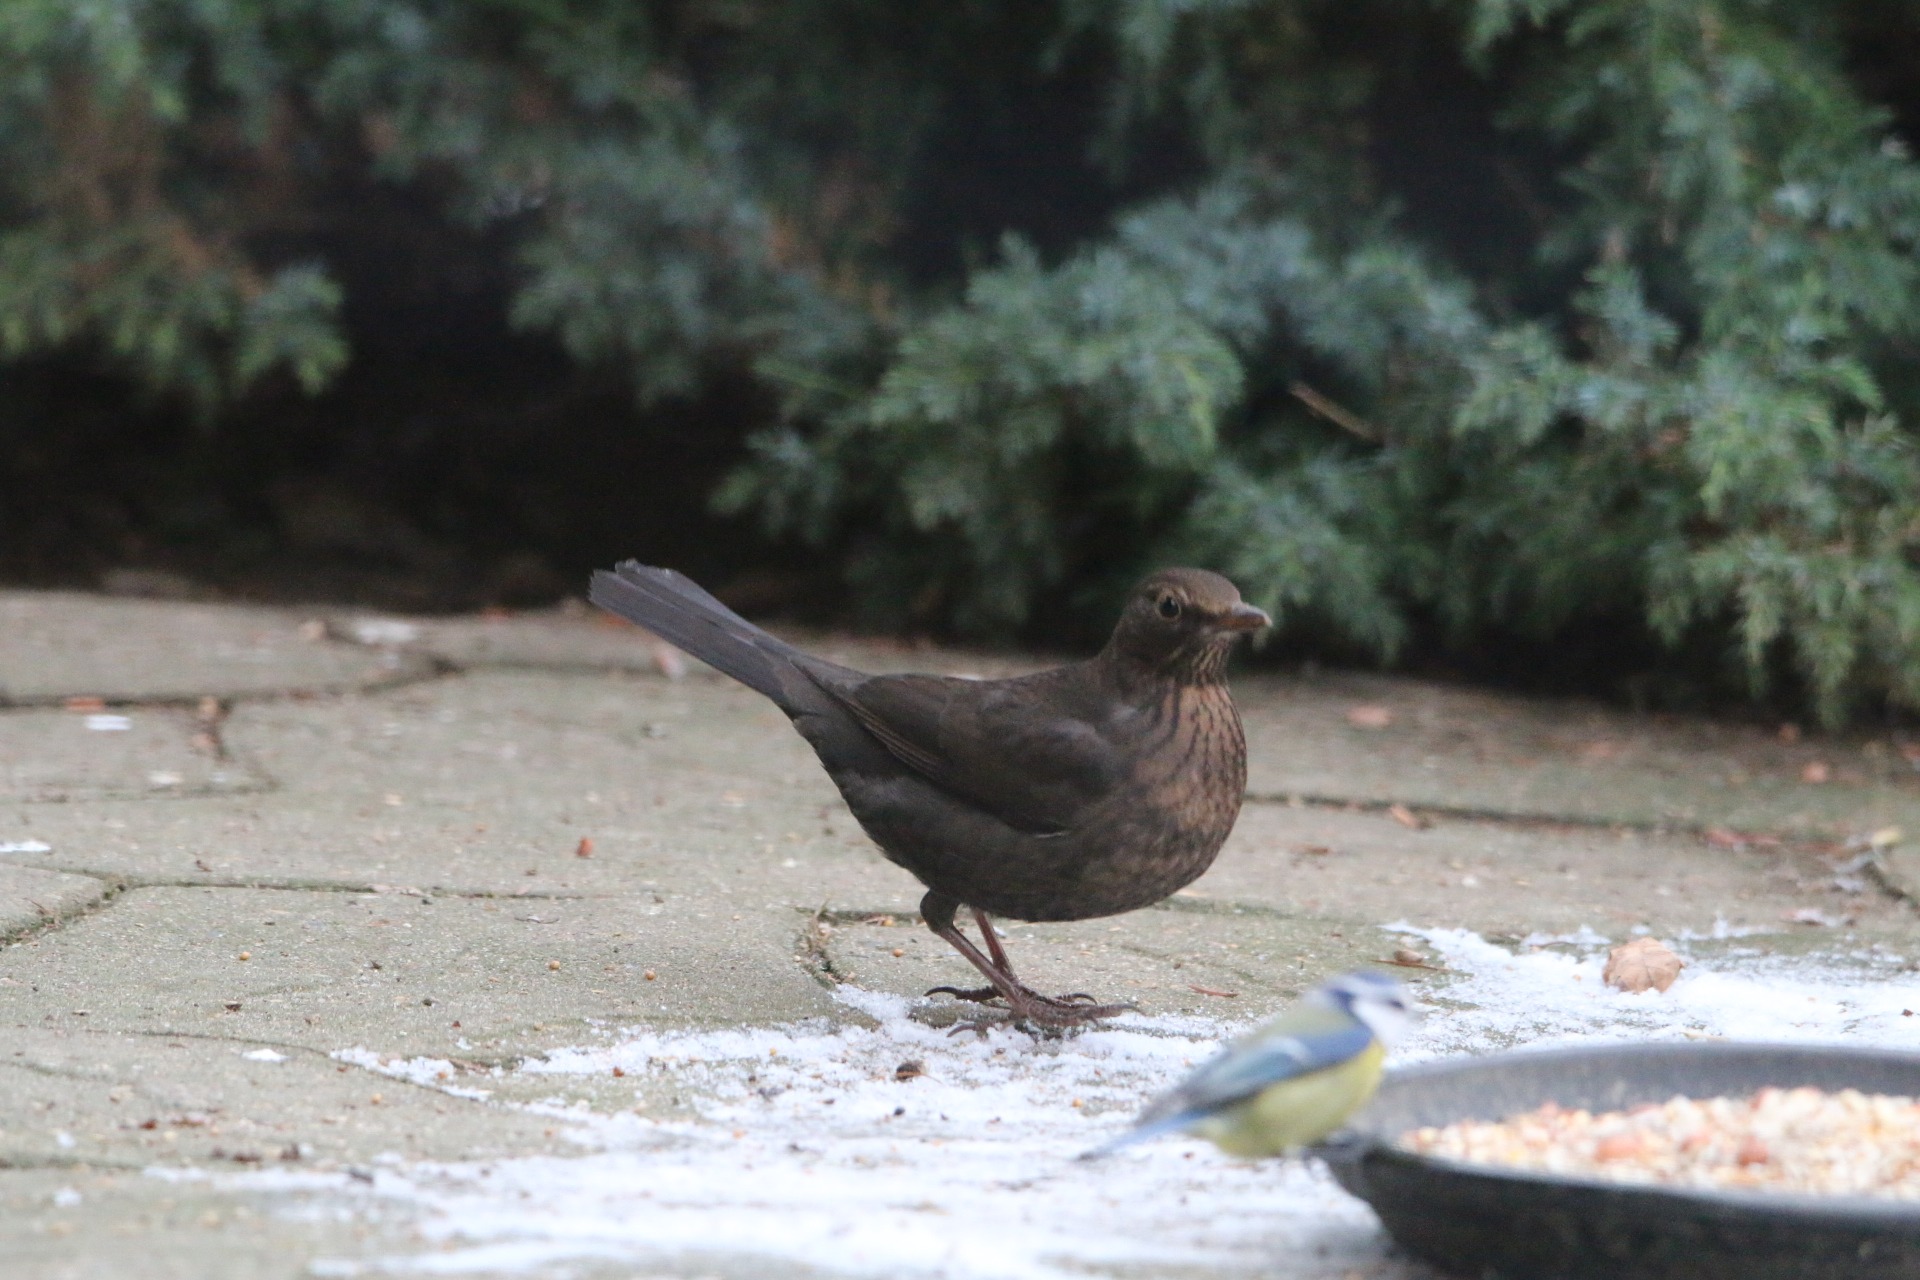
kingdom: Animalia
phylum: Chordata
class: Aves
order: Passeriformes
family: Turdidae
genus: Turdus
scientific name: Turdus merula
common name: Solsort
